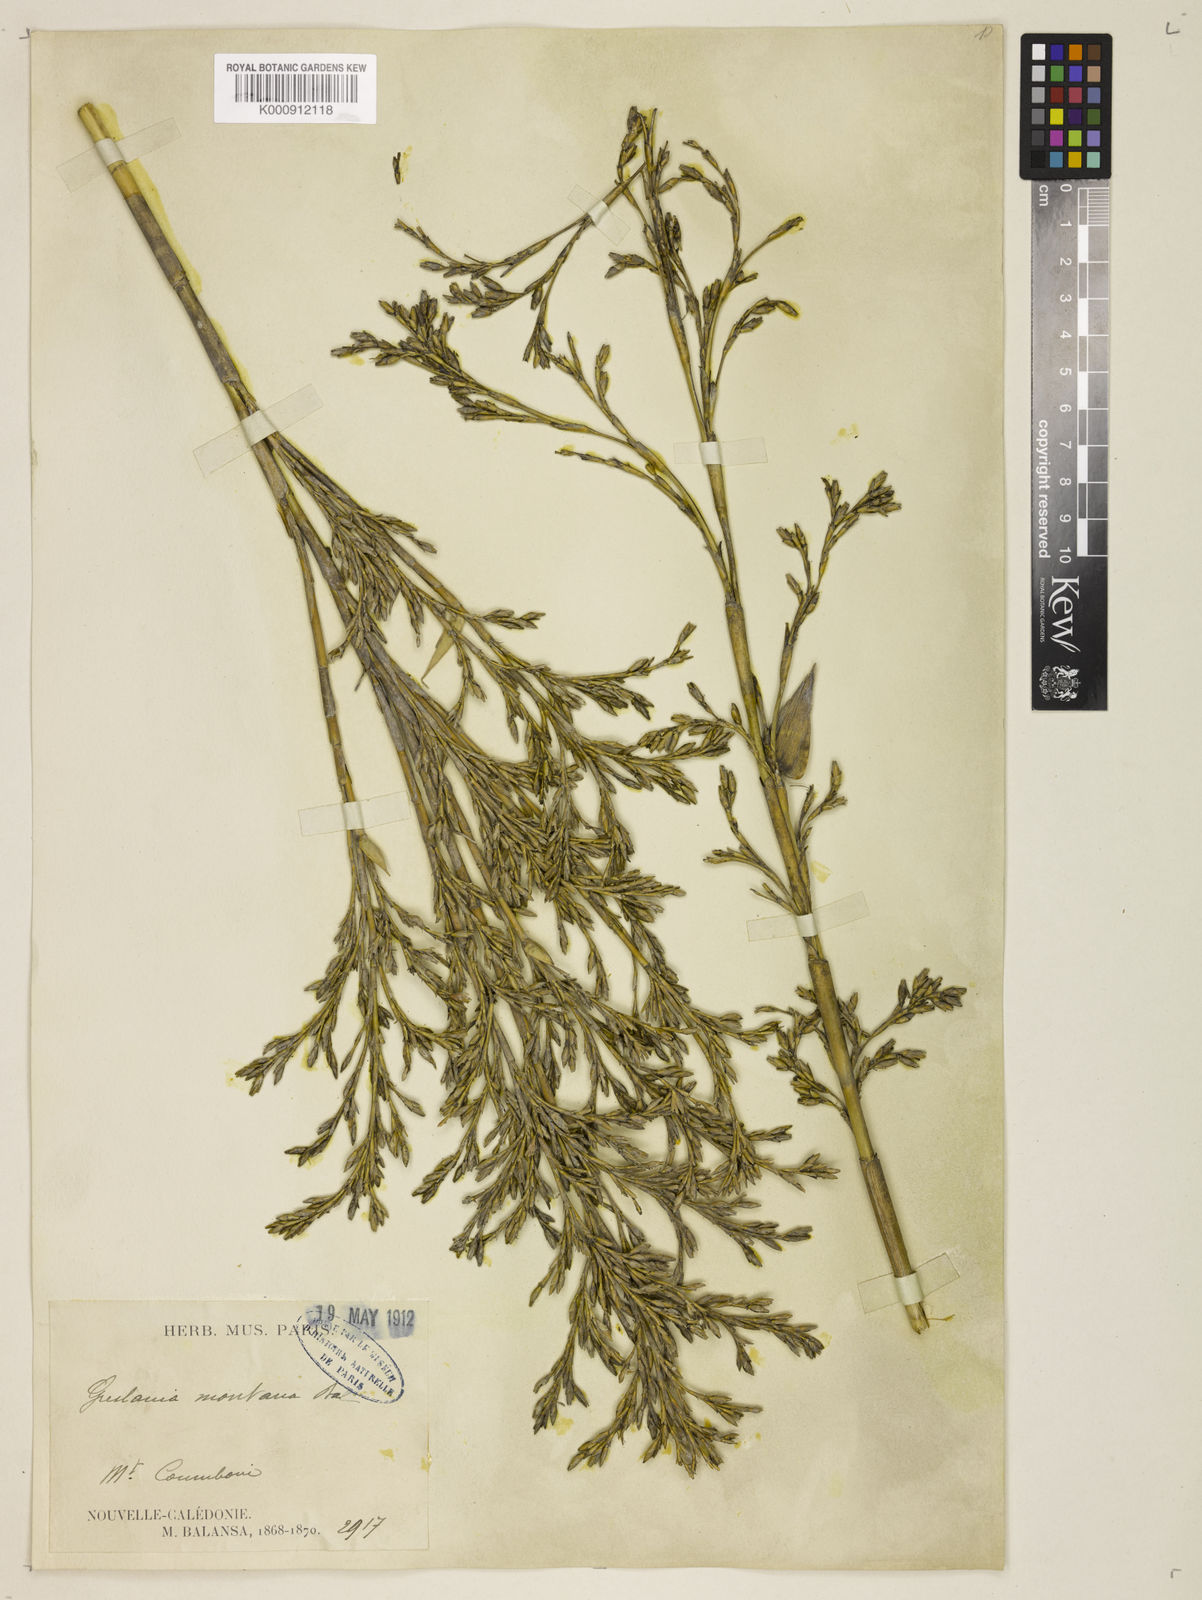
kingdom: Plantae
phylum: Tracheophyta
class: Liliopsida
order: Poales
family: Poaceae
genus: Greslania
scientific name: Greslania rivularis
